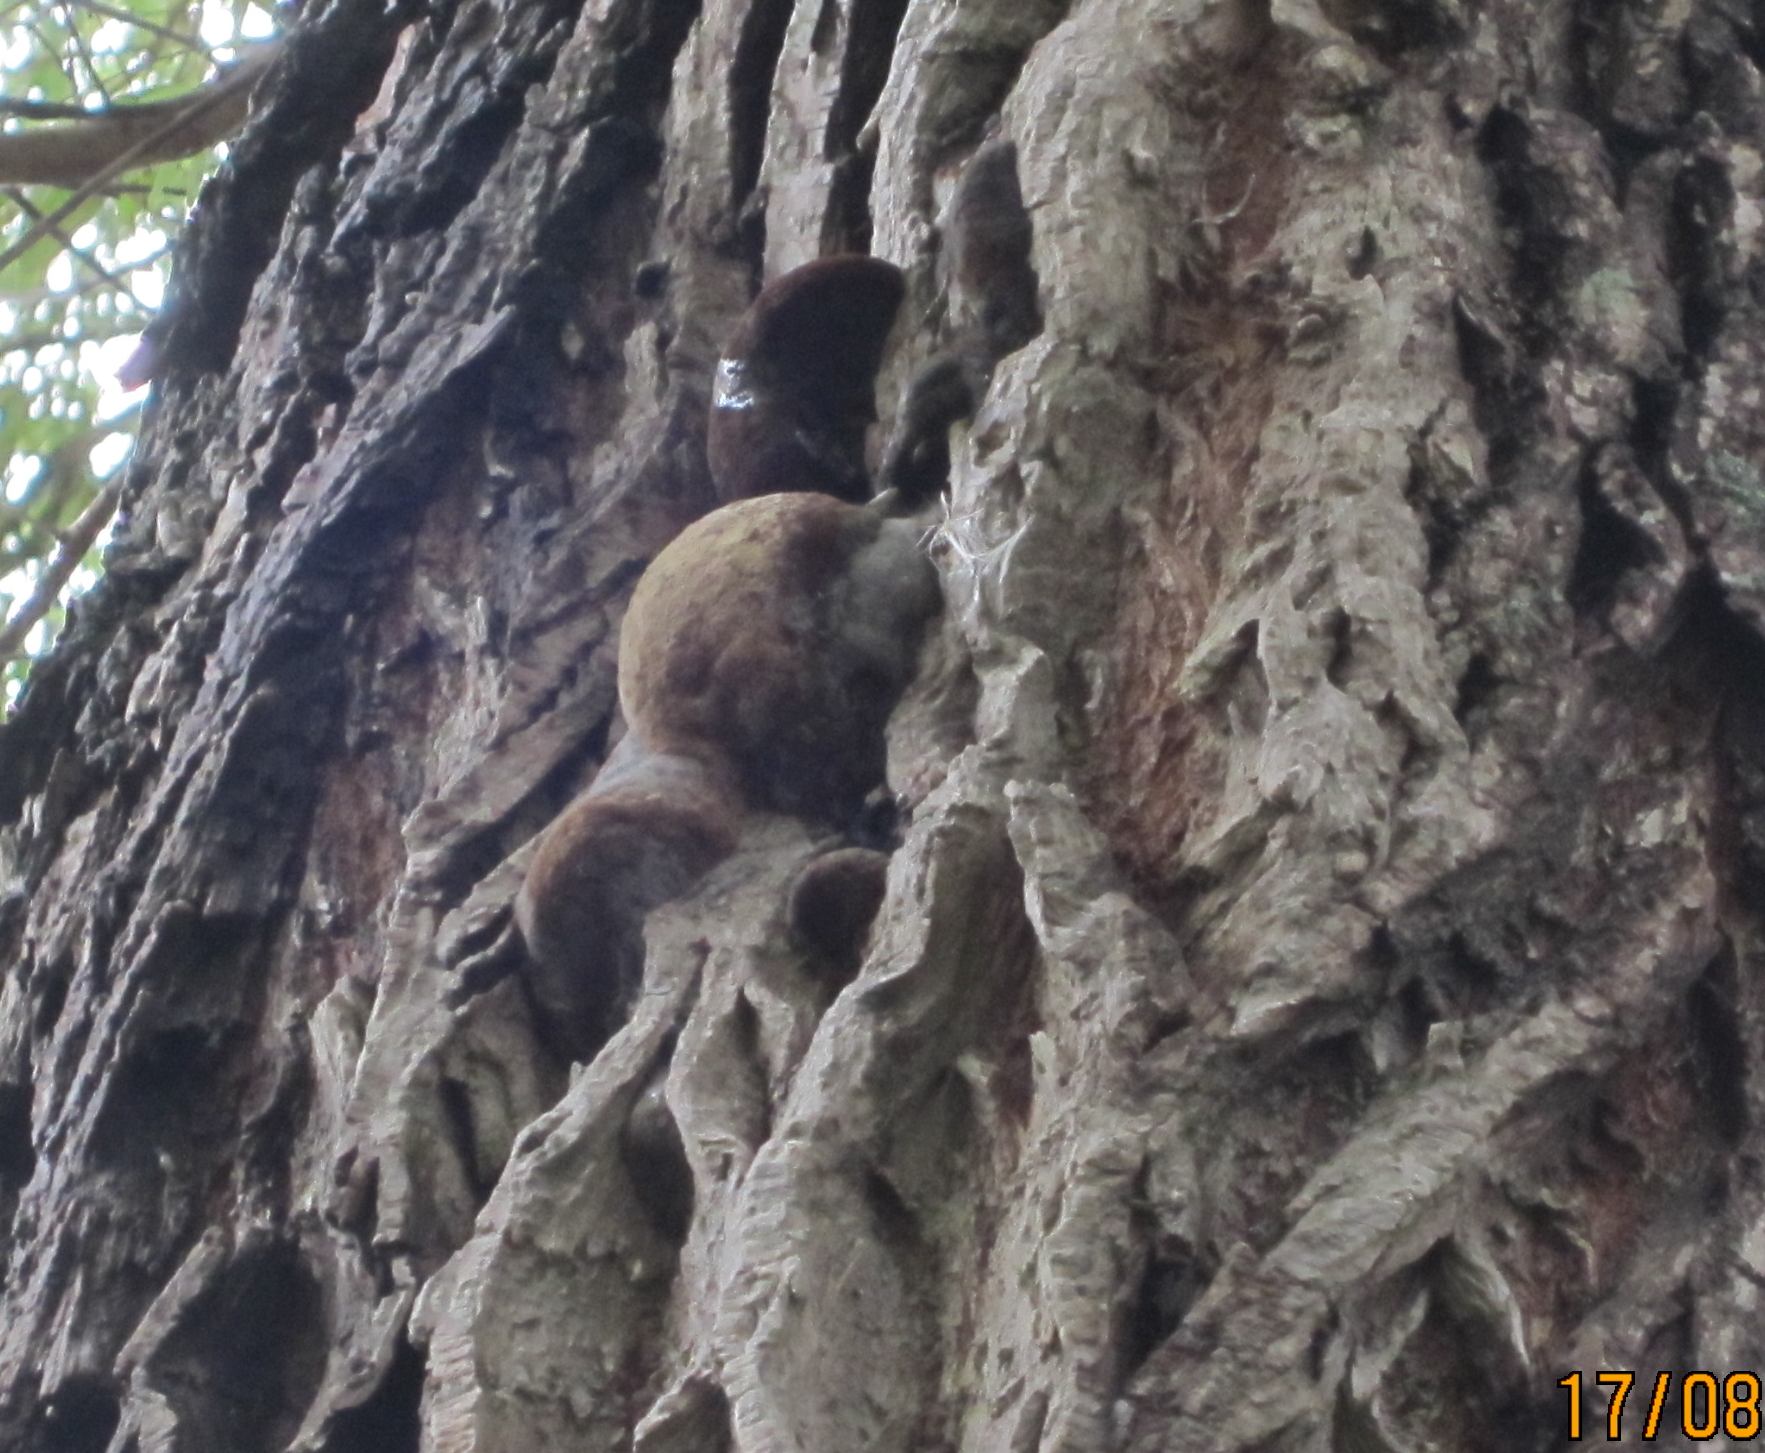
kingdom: Fungi
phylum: Basidiomycota
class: Agaricomycetes
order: Hymenochaetales
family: Hymenochaetaceae
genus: Phellinus
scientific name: Phellinus igniarius
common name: almindelig ildporesvamp
